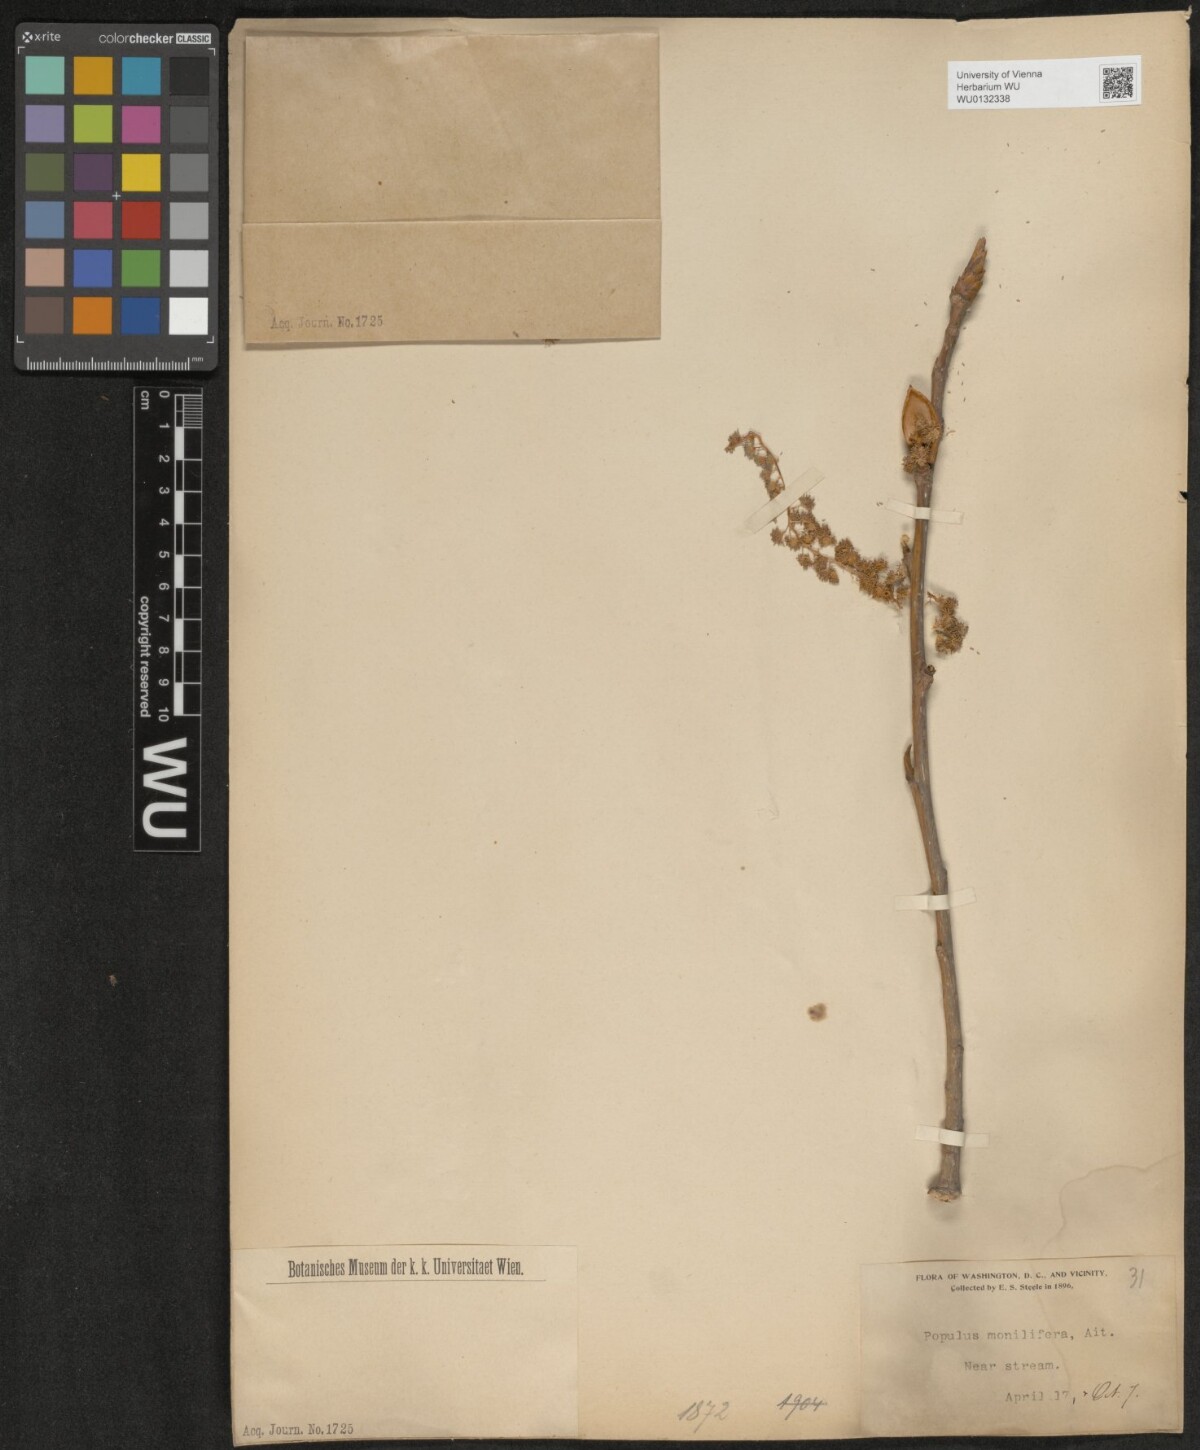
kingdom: Plantae
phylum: Tracheophyta
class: Magnoliopsida
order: Malpighiales
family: Salicaceae
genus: Populus
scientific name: Populus deltoides
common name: Eastern cottonwood
